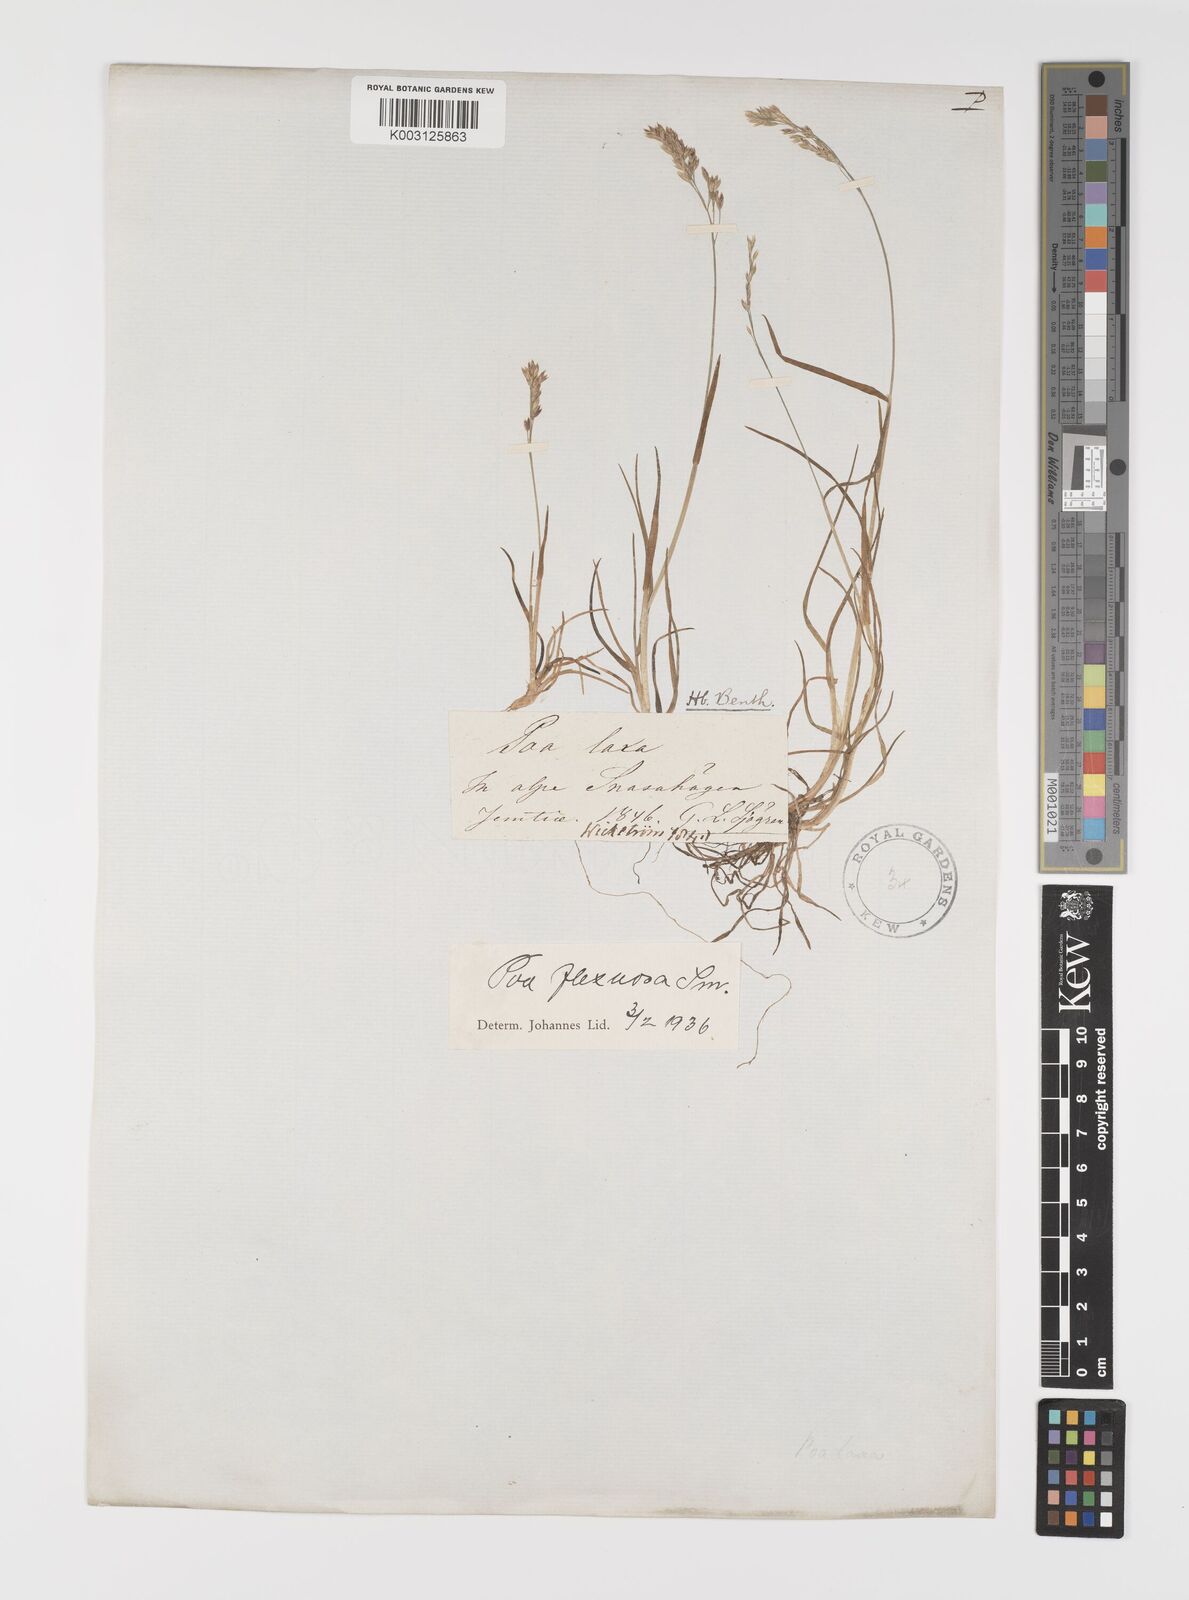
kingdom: Plantae
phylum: Tracheophyta
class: Liliopsida
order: Poales
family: Poaceae
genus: Eragrostis
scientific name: Eragrostis cilianensis
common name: Stinkgrass
